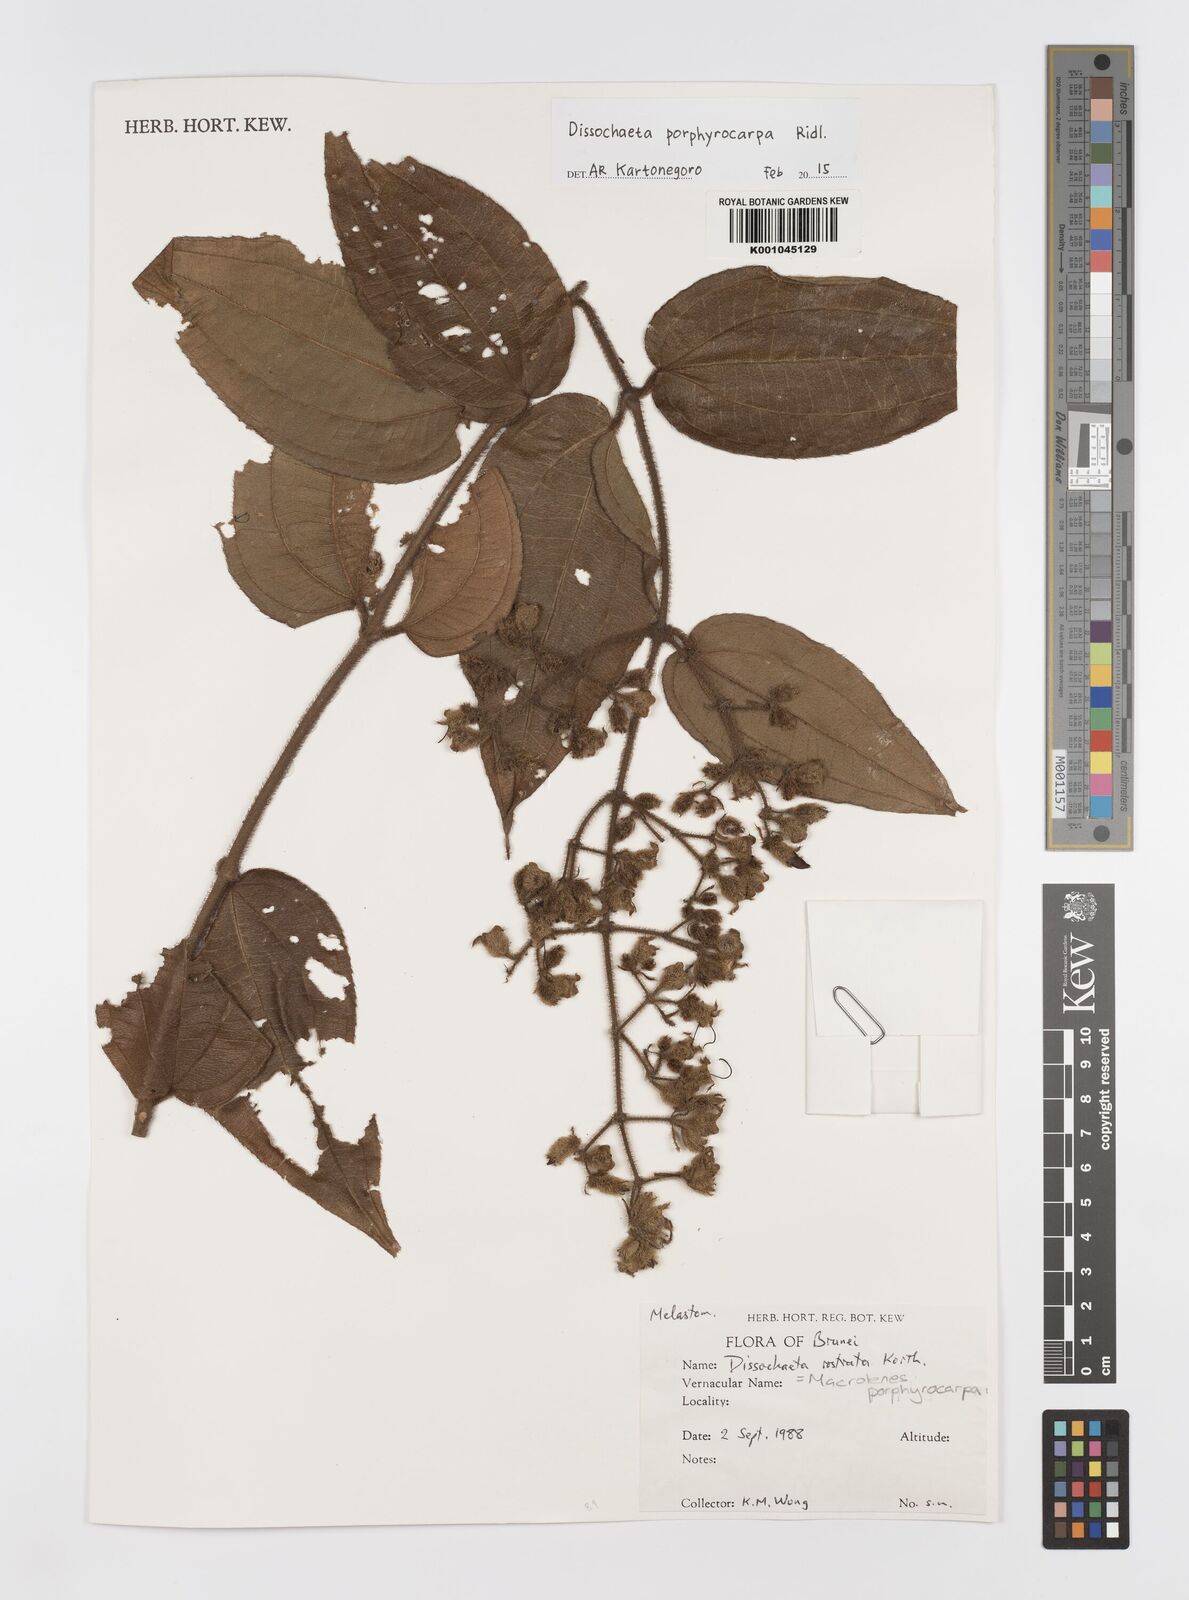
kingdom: Plantae
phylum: Tracheophyta
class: Magnoliopsida
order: Myrtales
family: Melastomataceae
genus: Macrolenes
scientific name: Macrolenes porphyrocarpa
